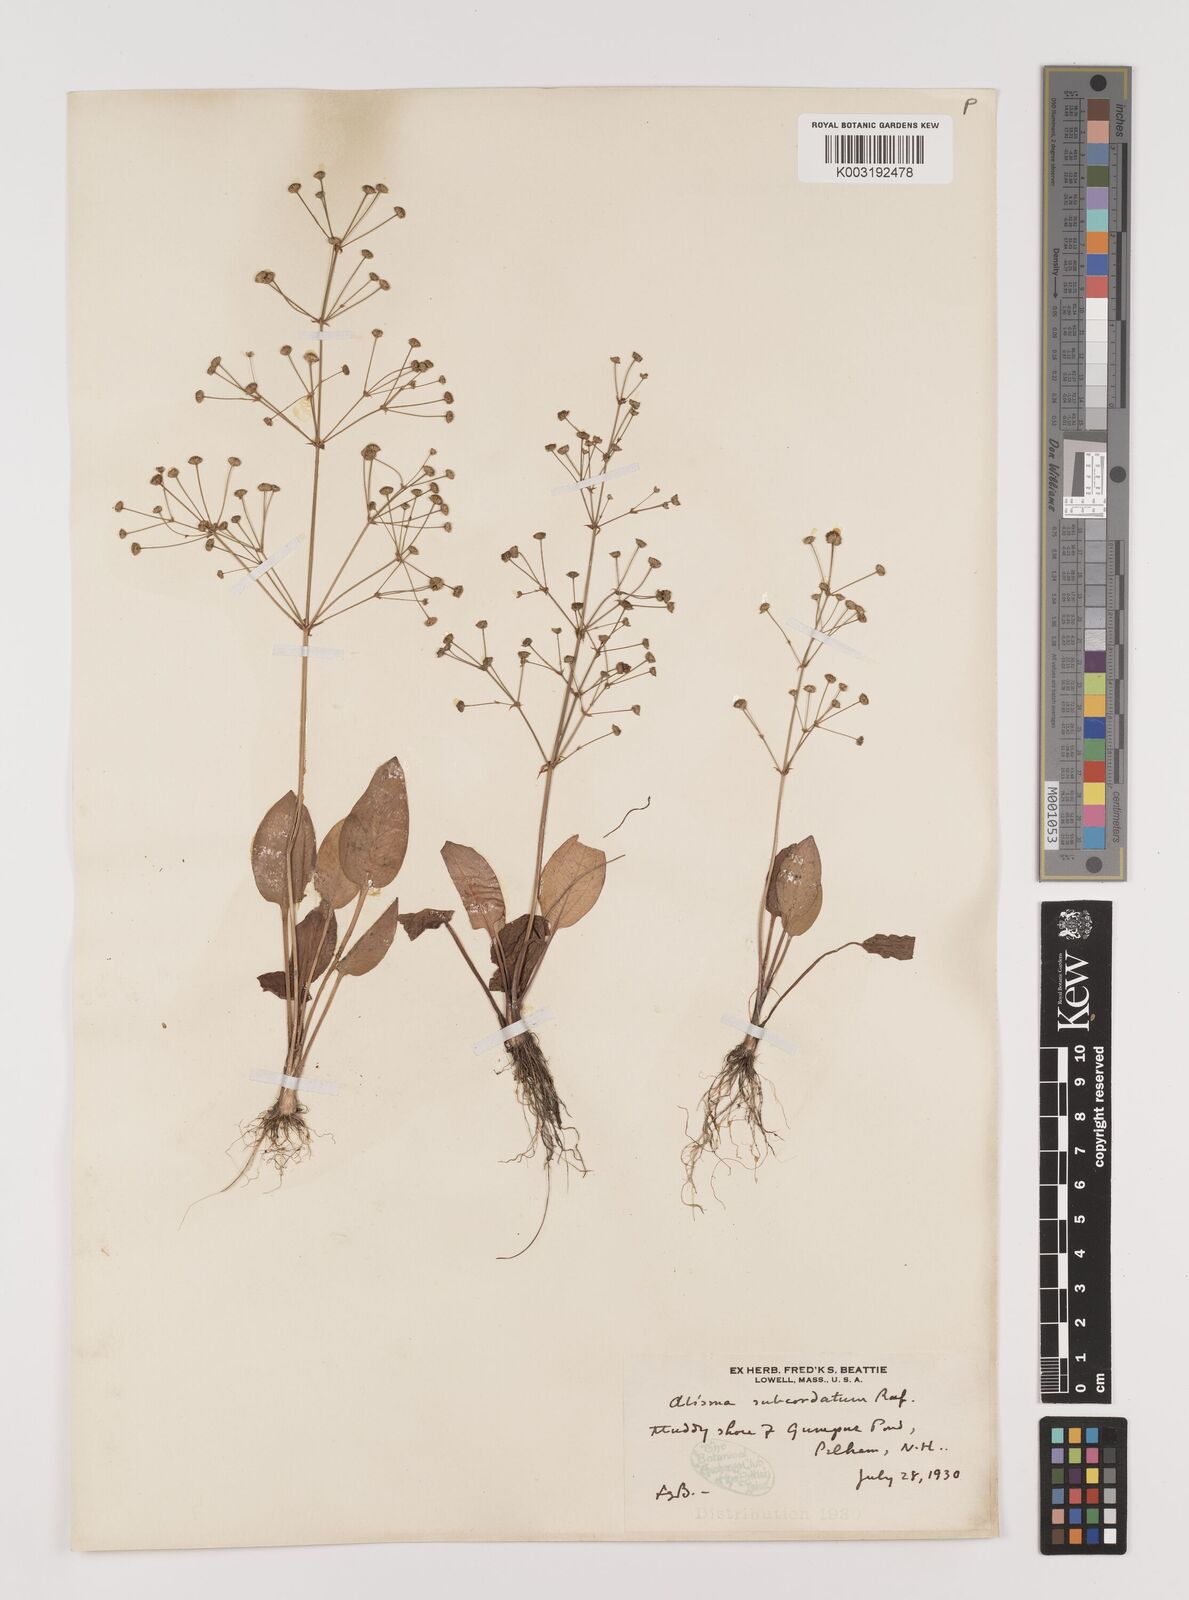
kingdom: Plantae
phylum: Tracheophyta
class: Liliopsida
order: Alismatales
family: Alismataceae
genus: Alisma
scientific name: Alisma subcordatum
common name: Southern water-plantain
